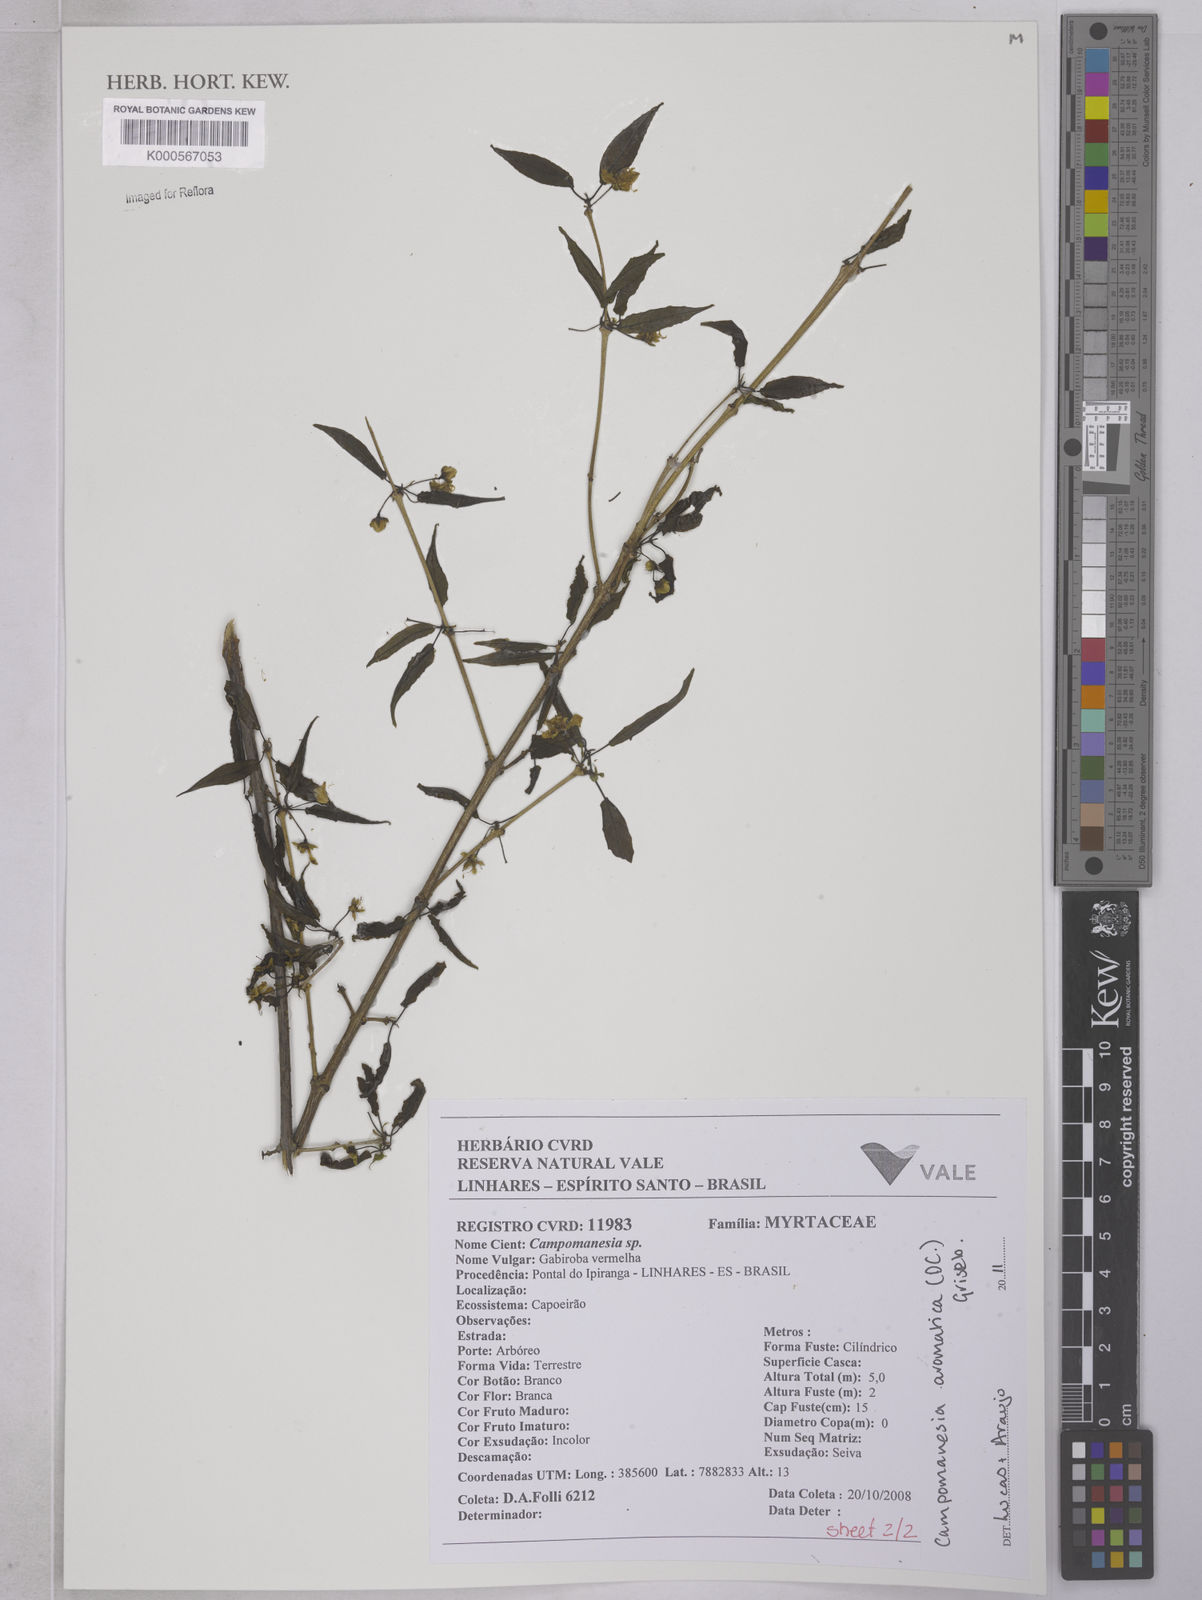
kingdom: Plantae
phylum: Tracheophyta
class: Magnoliopsida
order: Myrtales
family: Myrtaceae
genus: Campomanesia
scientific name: Campomanesia aromatica
